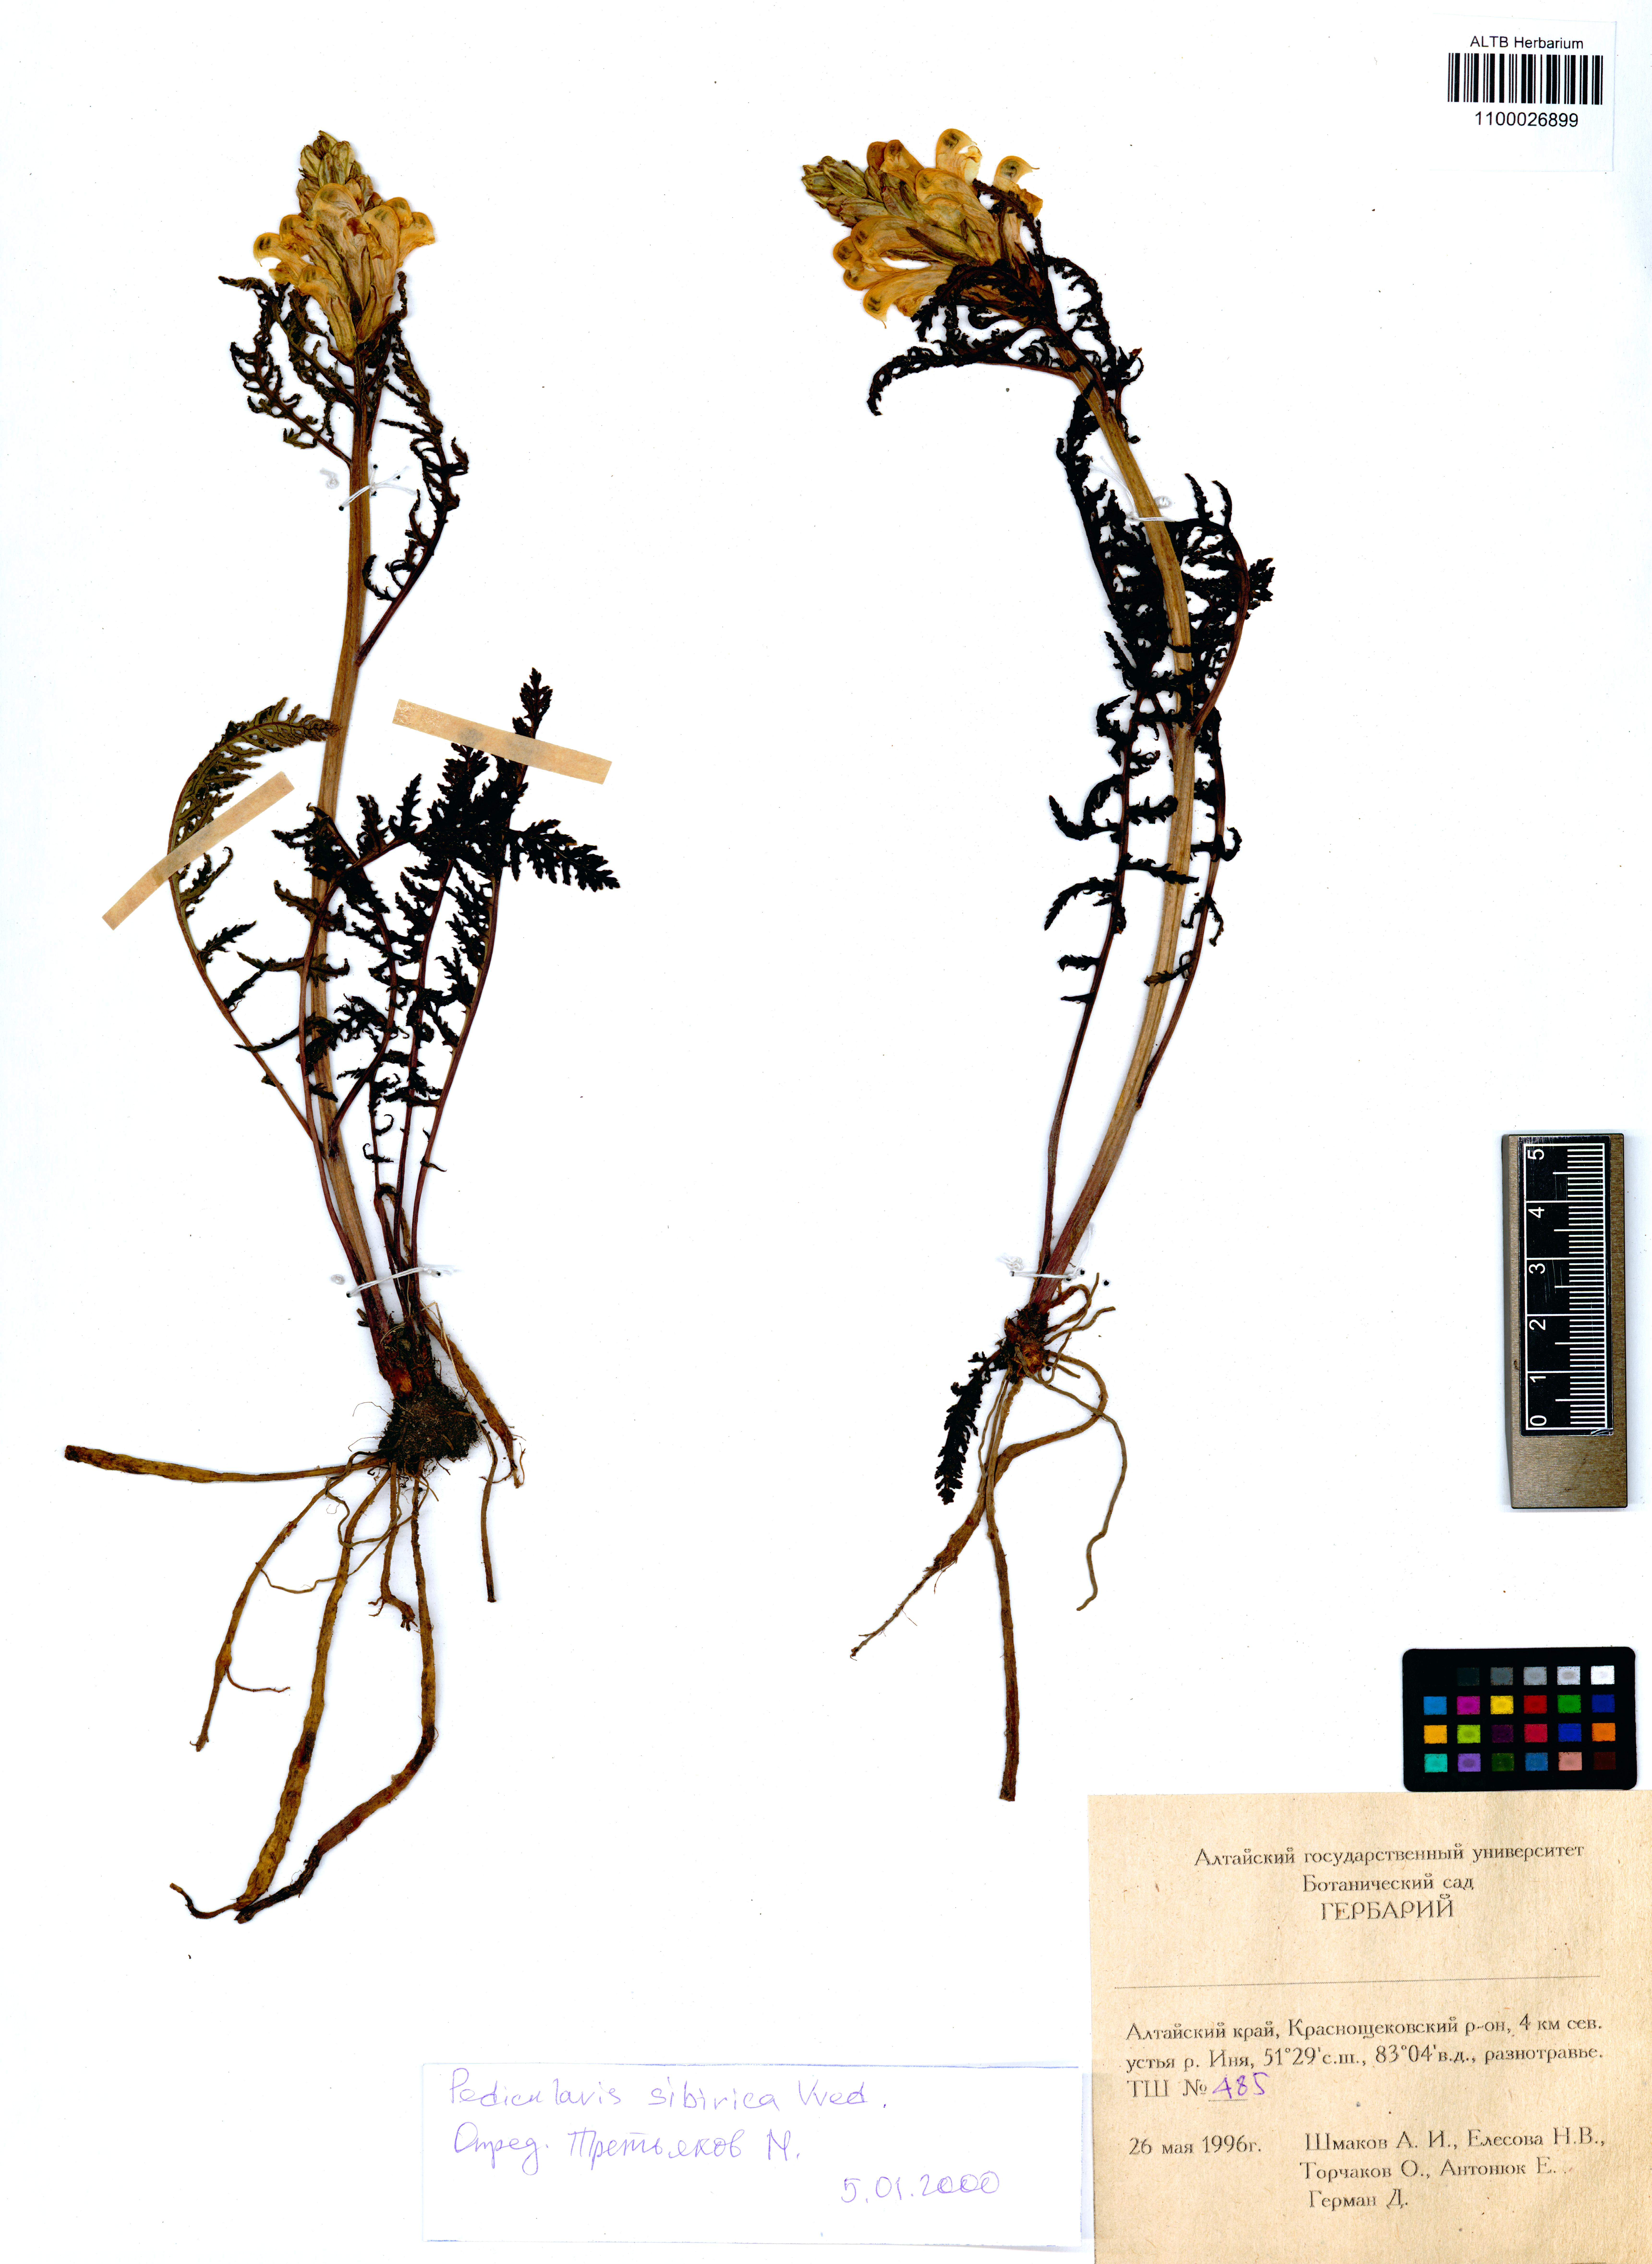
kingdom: Plantae
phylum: Tracheophyta
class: Magnoliopsida
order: Lamiales
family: Orobanchaceae
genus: Pedicularis
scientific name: Pedicularis sibirica
